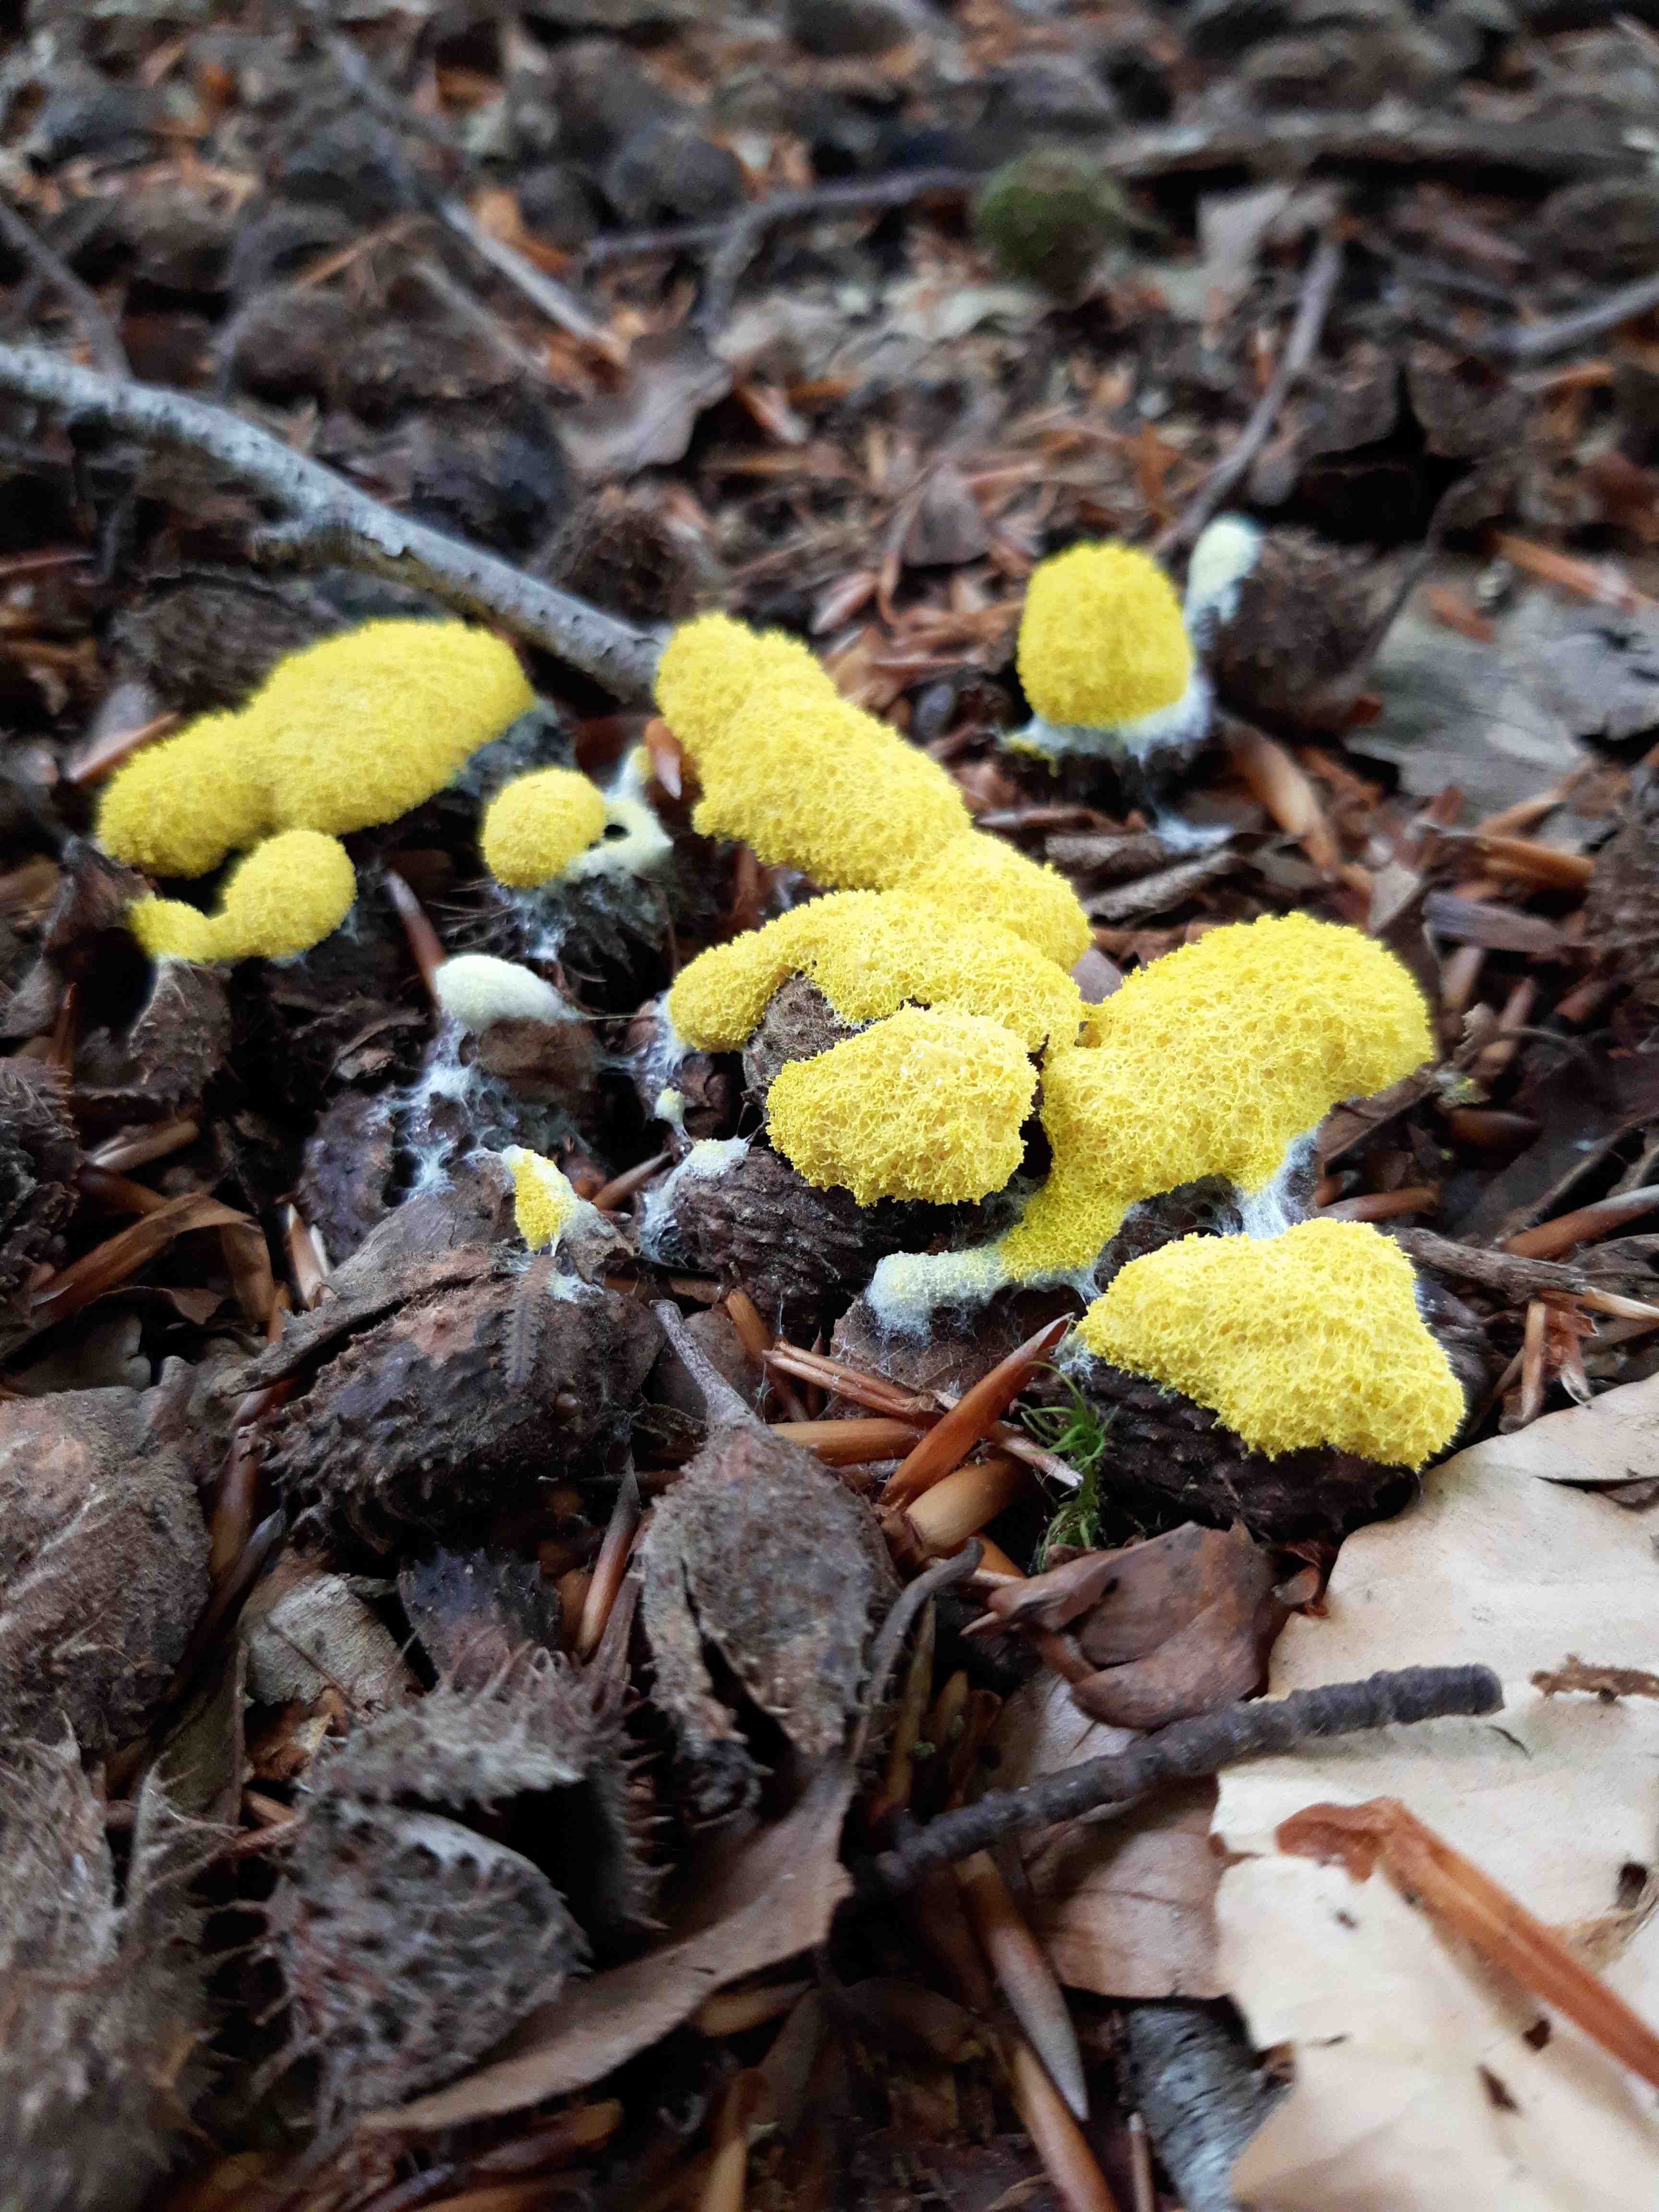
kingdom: Protozoa
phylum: Mycetozoa
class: Myxomycetes
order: Physarales
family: Physaraceae
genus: Fuligo
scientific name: Fuligo septica
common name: gul troldsmør
